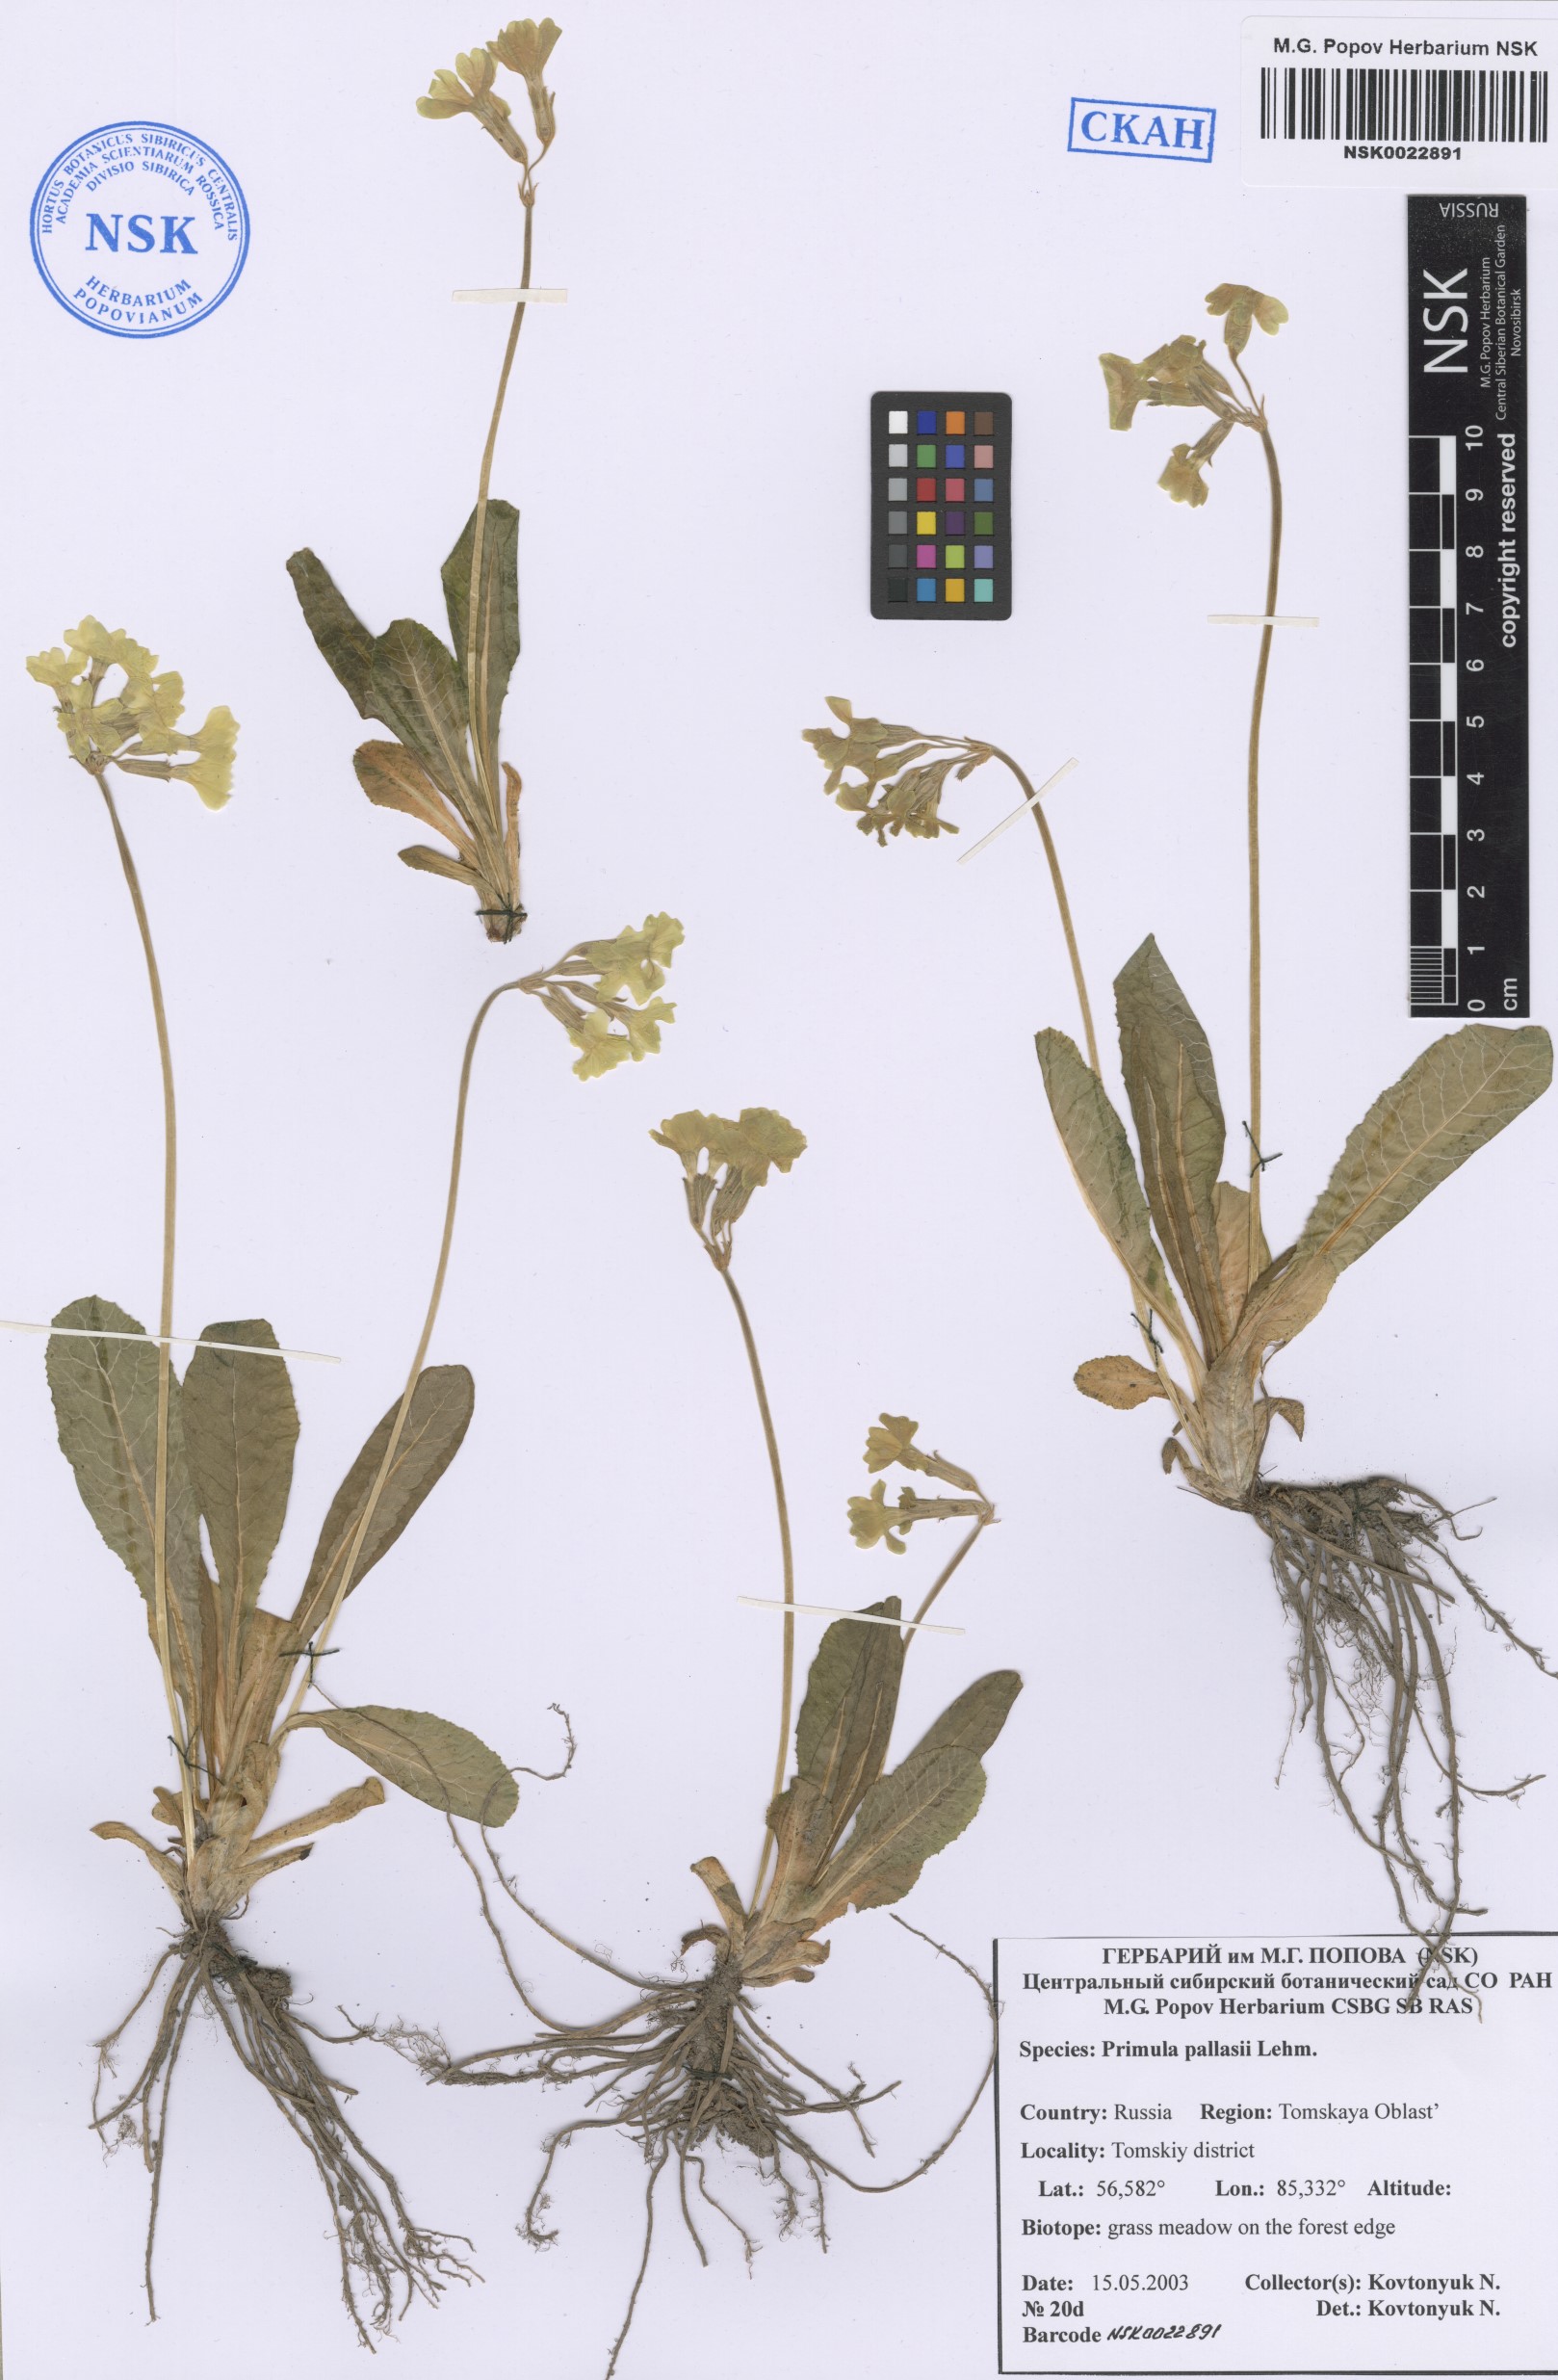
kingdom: Plantae
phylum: Tracheophyta
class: Magnoliopsida
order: Ericales
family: Primulaceae
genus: Primula
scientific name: Primula elatior
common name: Oxlip
